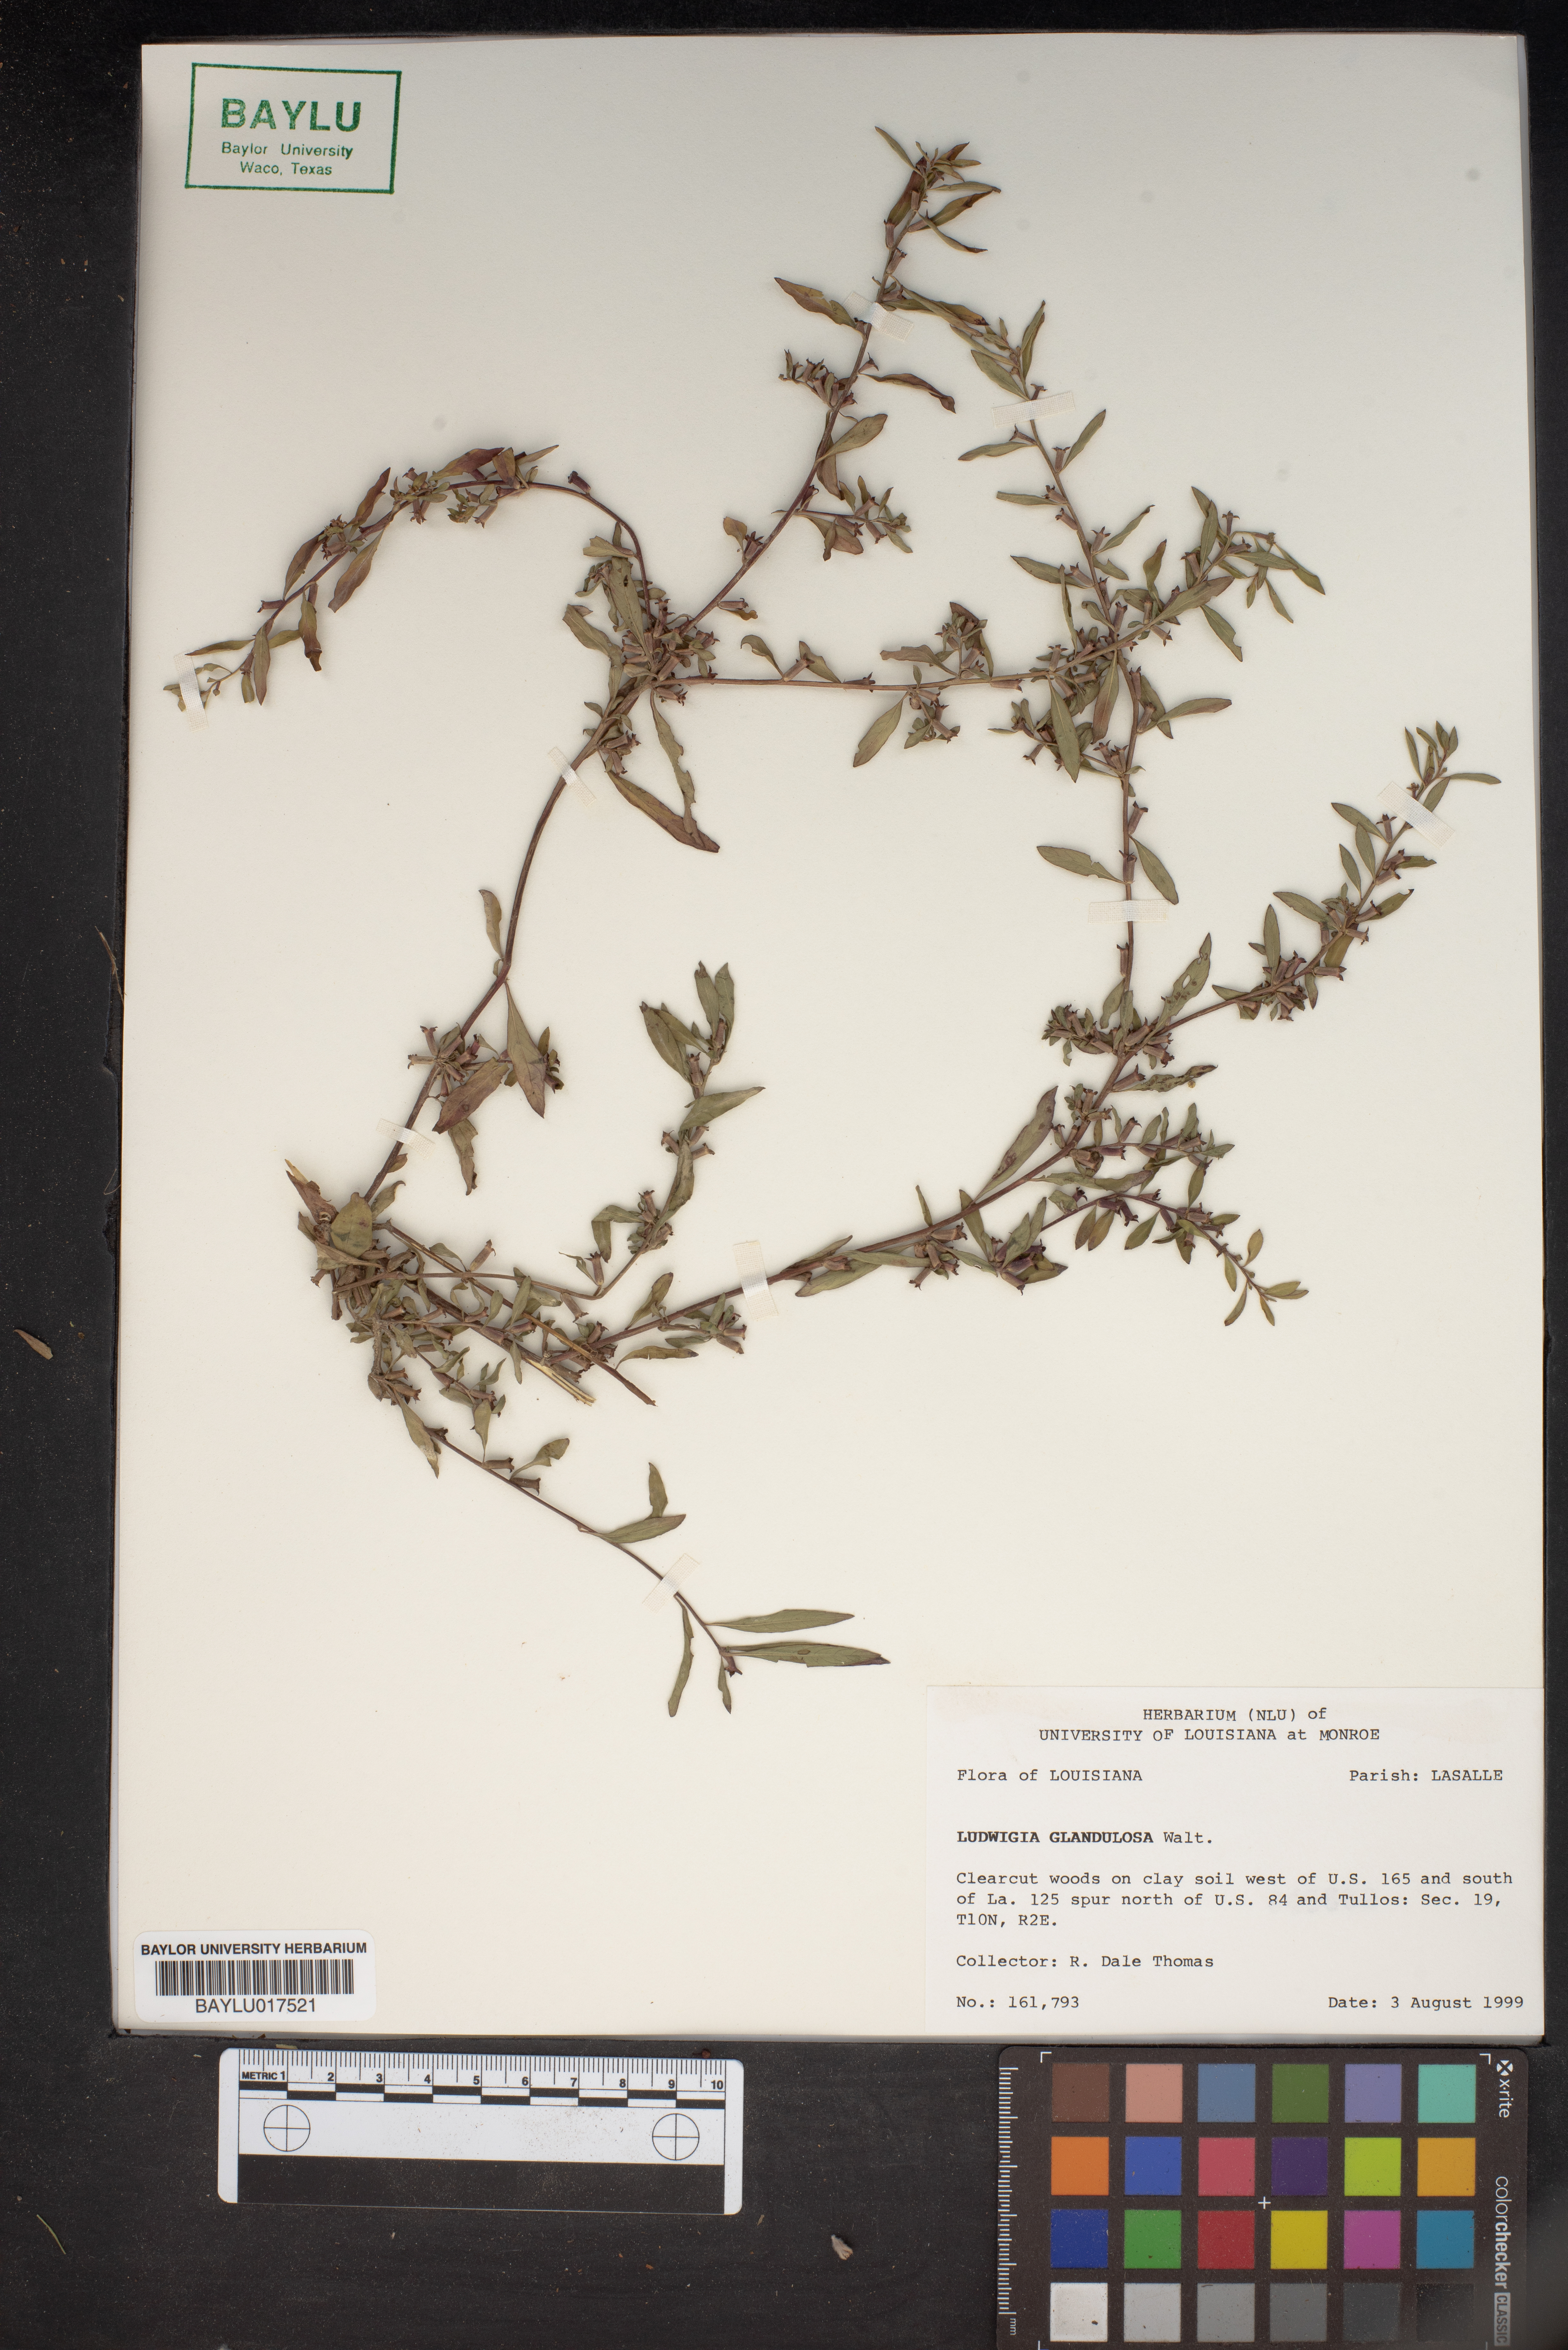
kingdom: Plantae
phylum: Tracheophyta
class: Magnoliopsida
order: Myrtales
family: Onagraceae
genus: Ludwigia
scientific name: Ludwigia glandulosa
